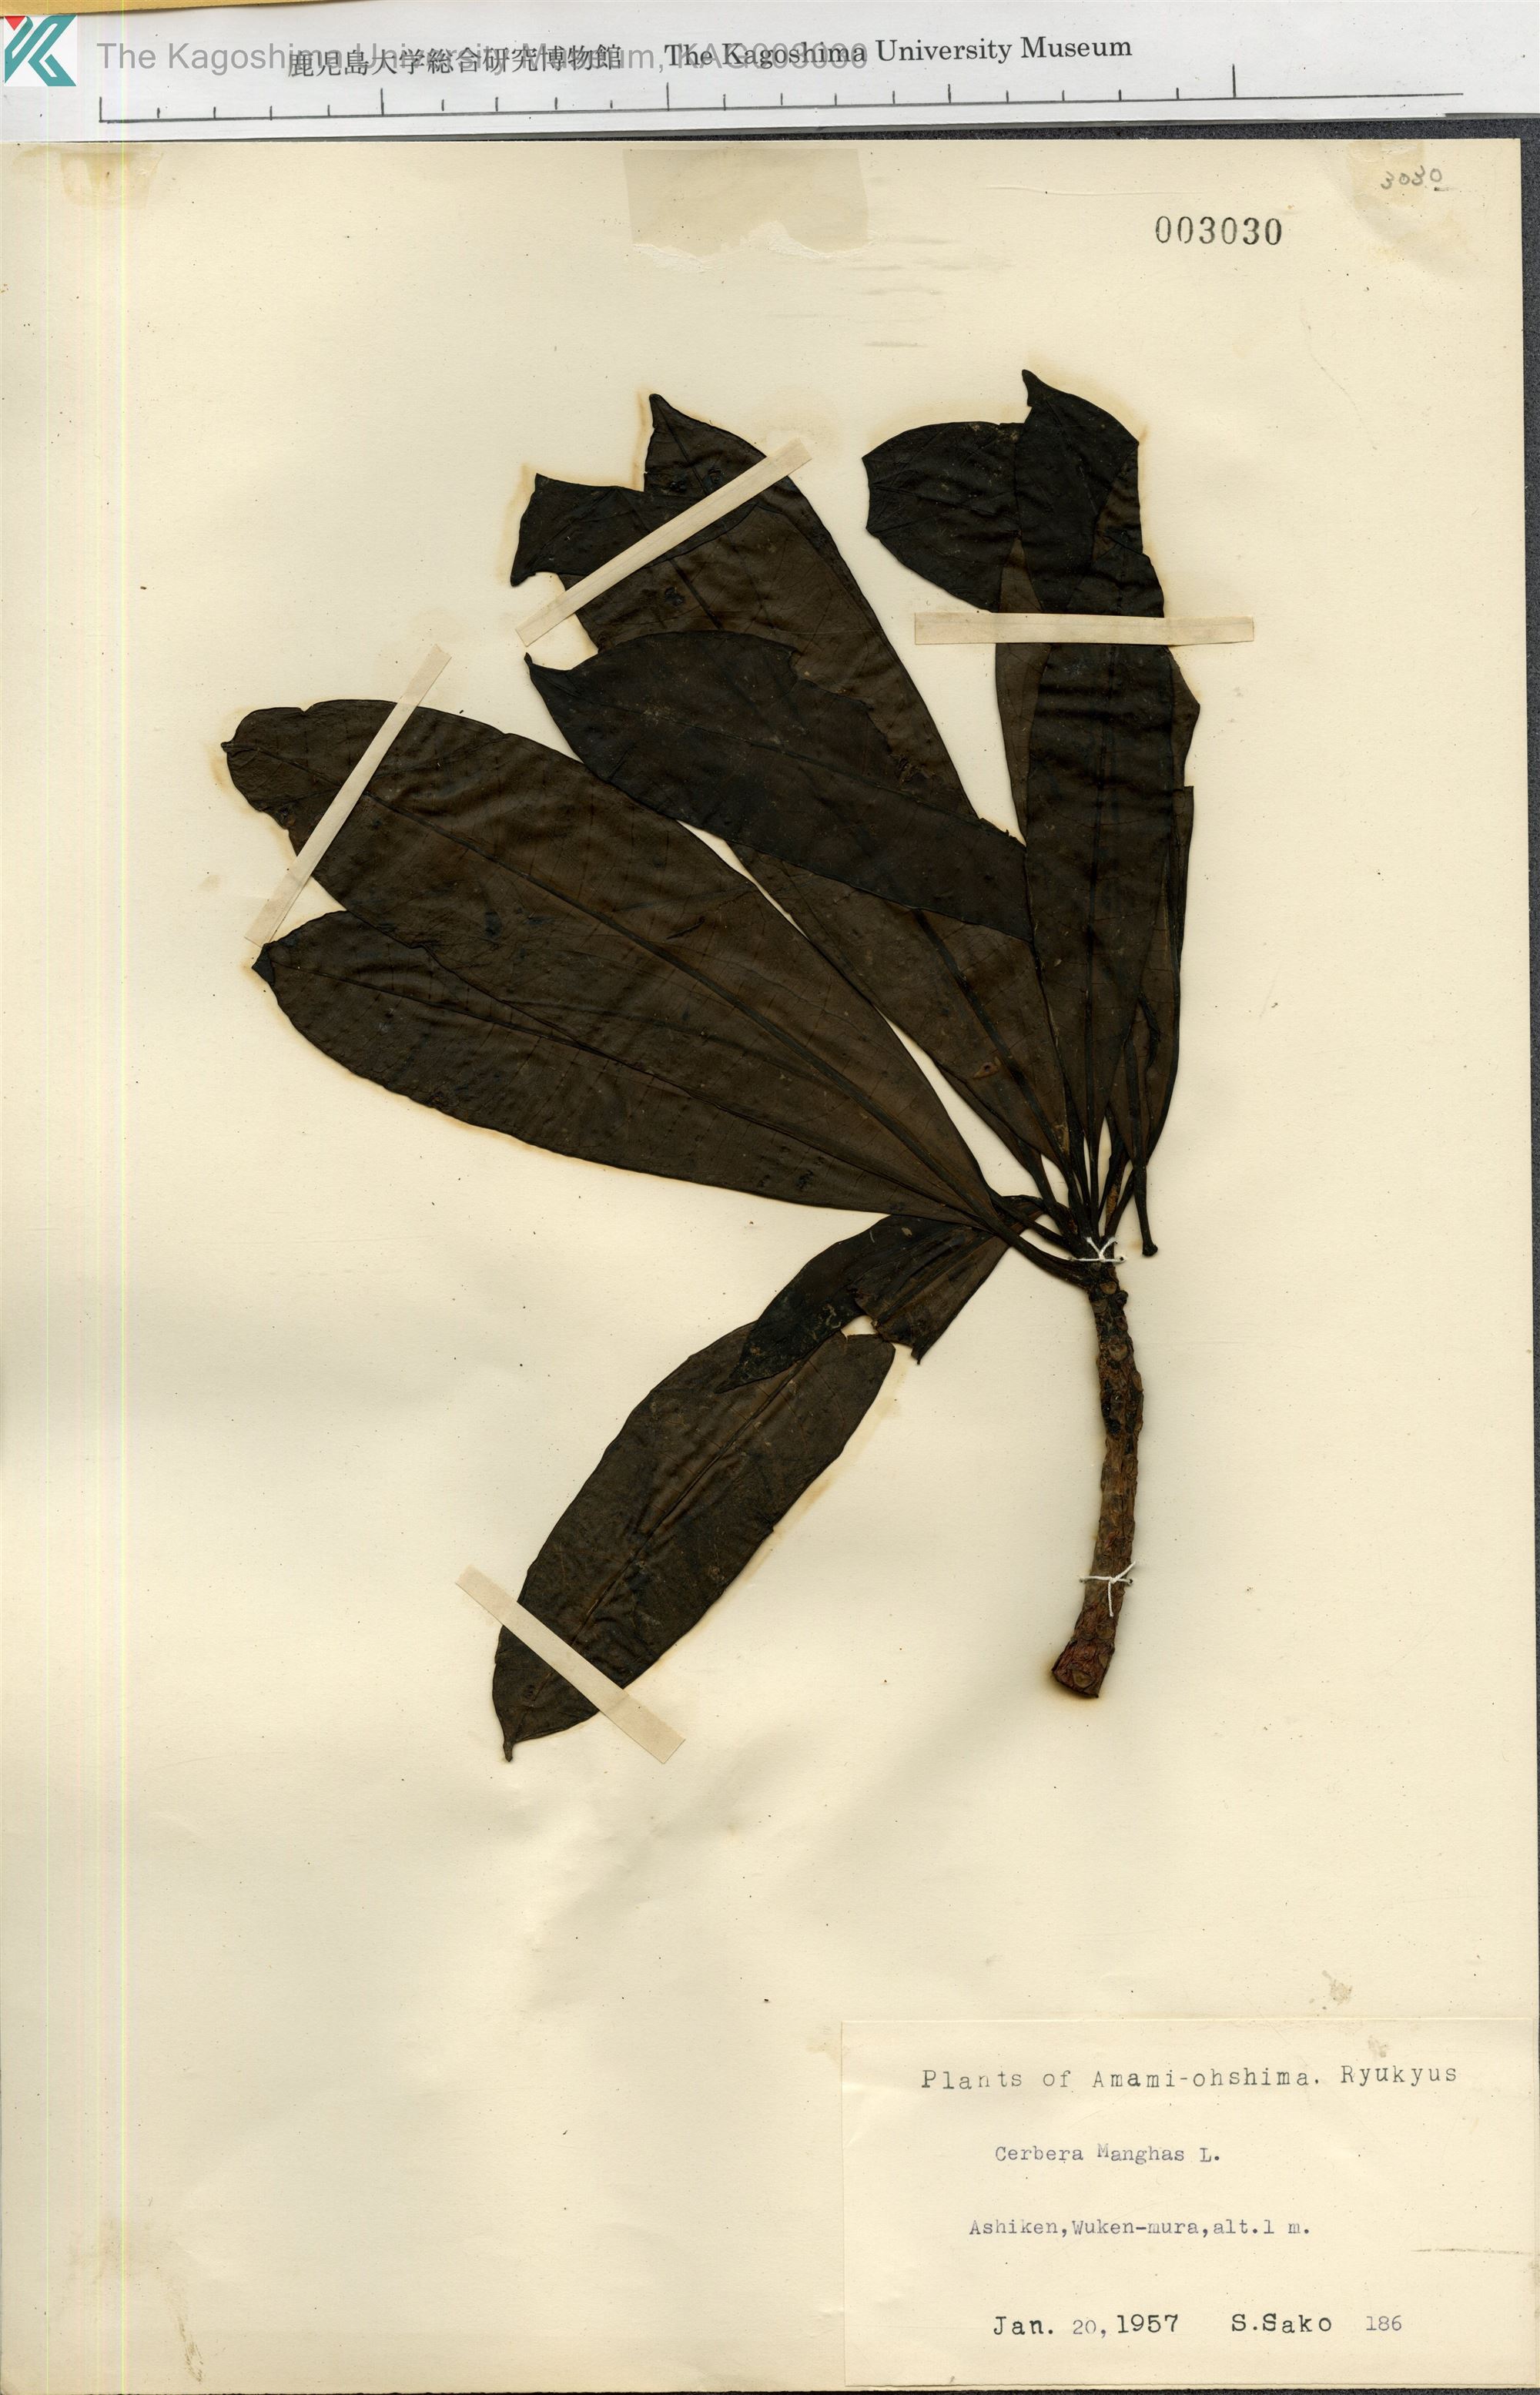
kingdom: Plantae
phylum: Tracheophyta
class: Magnoliopsida
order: Gentianales
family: Apocynaceae
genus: Cerbera
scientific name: Cerbera manghas
